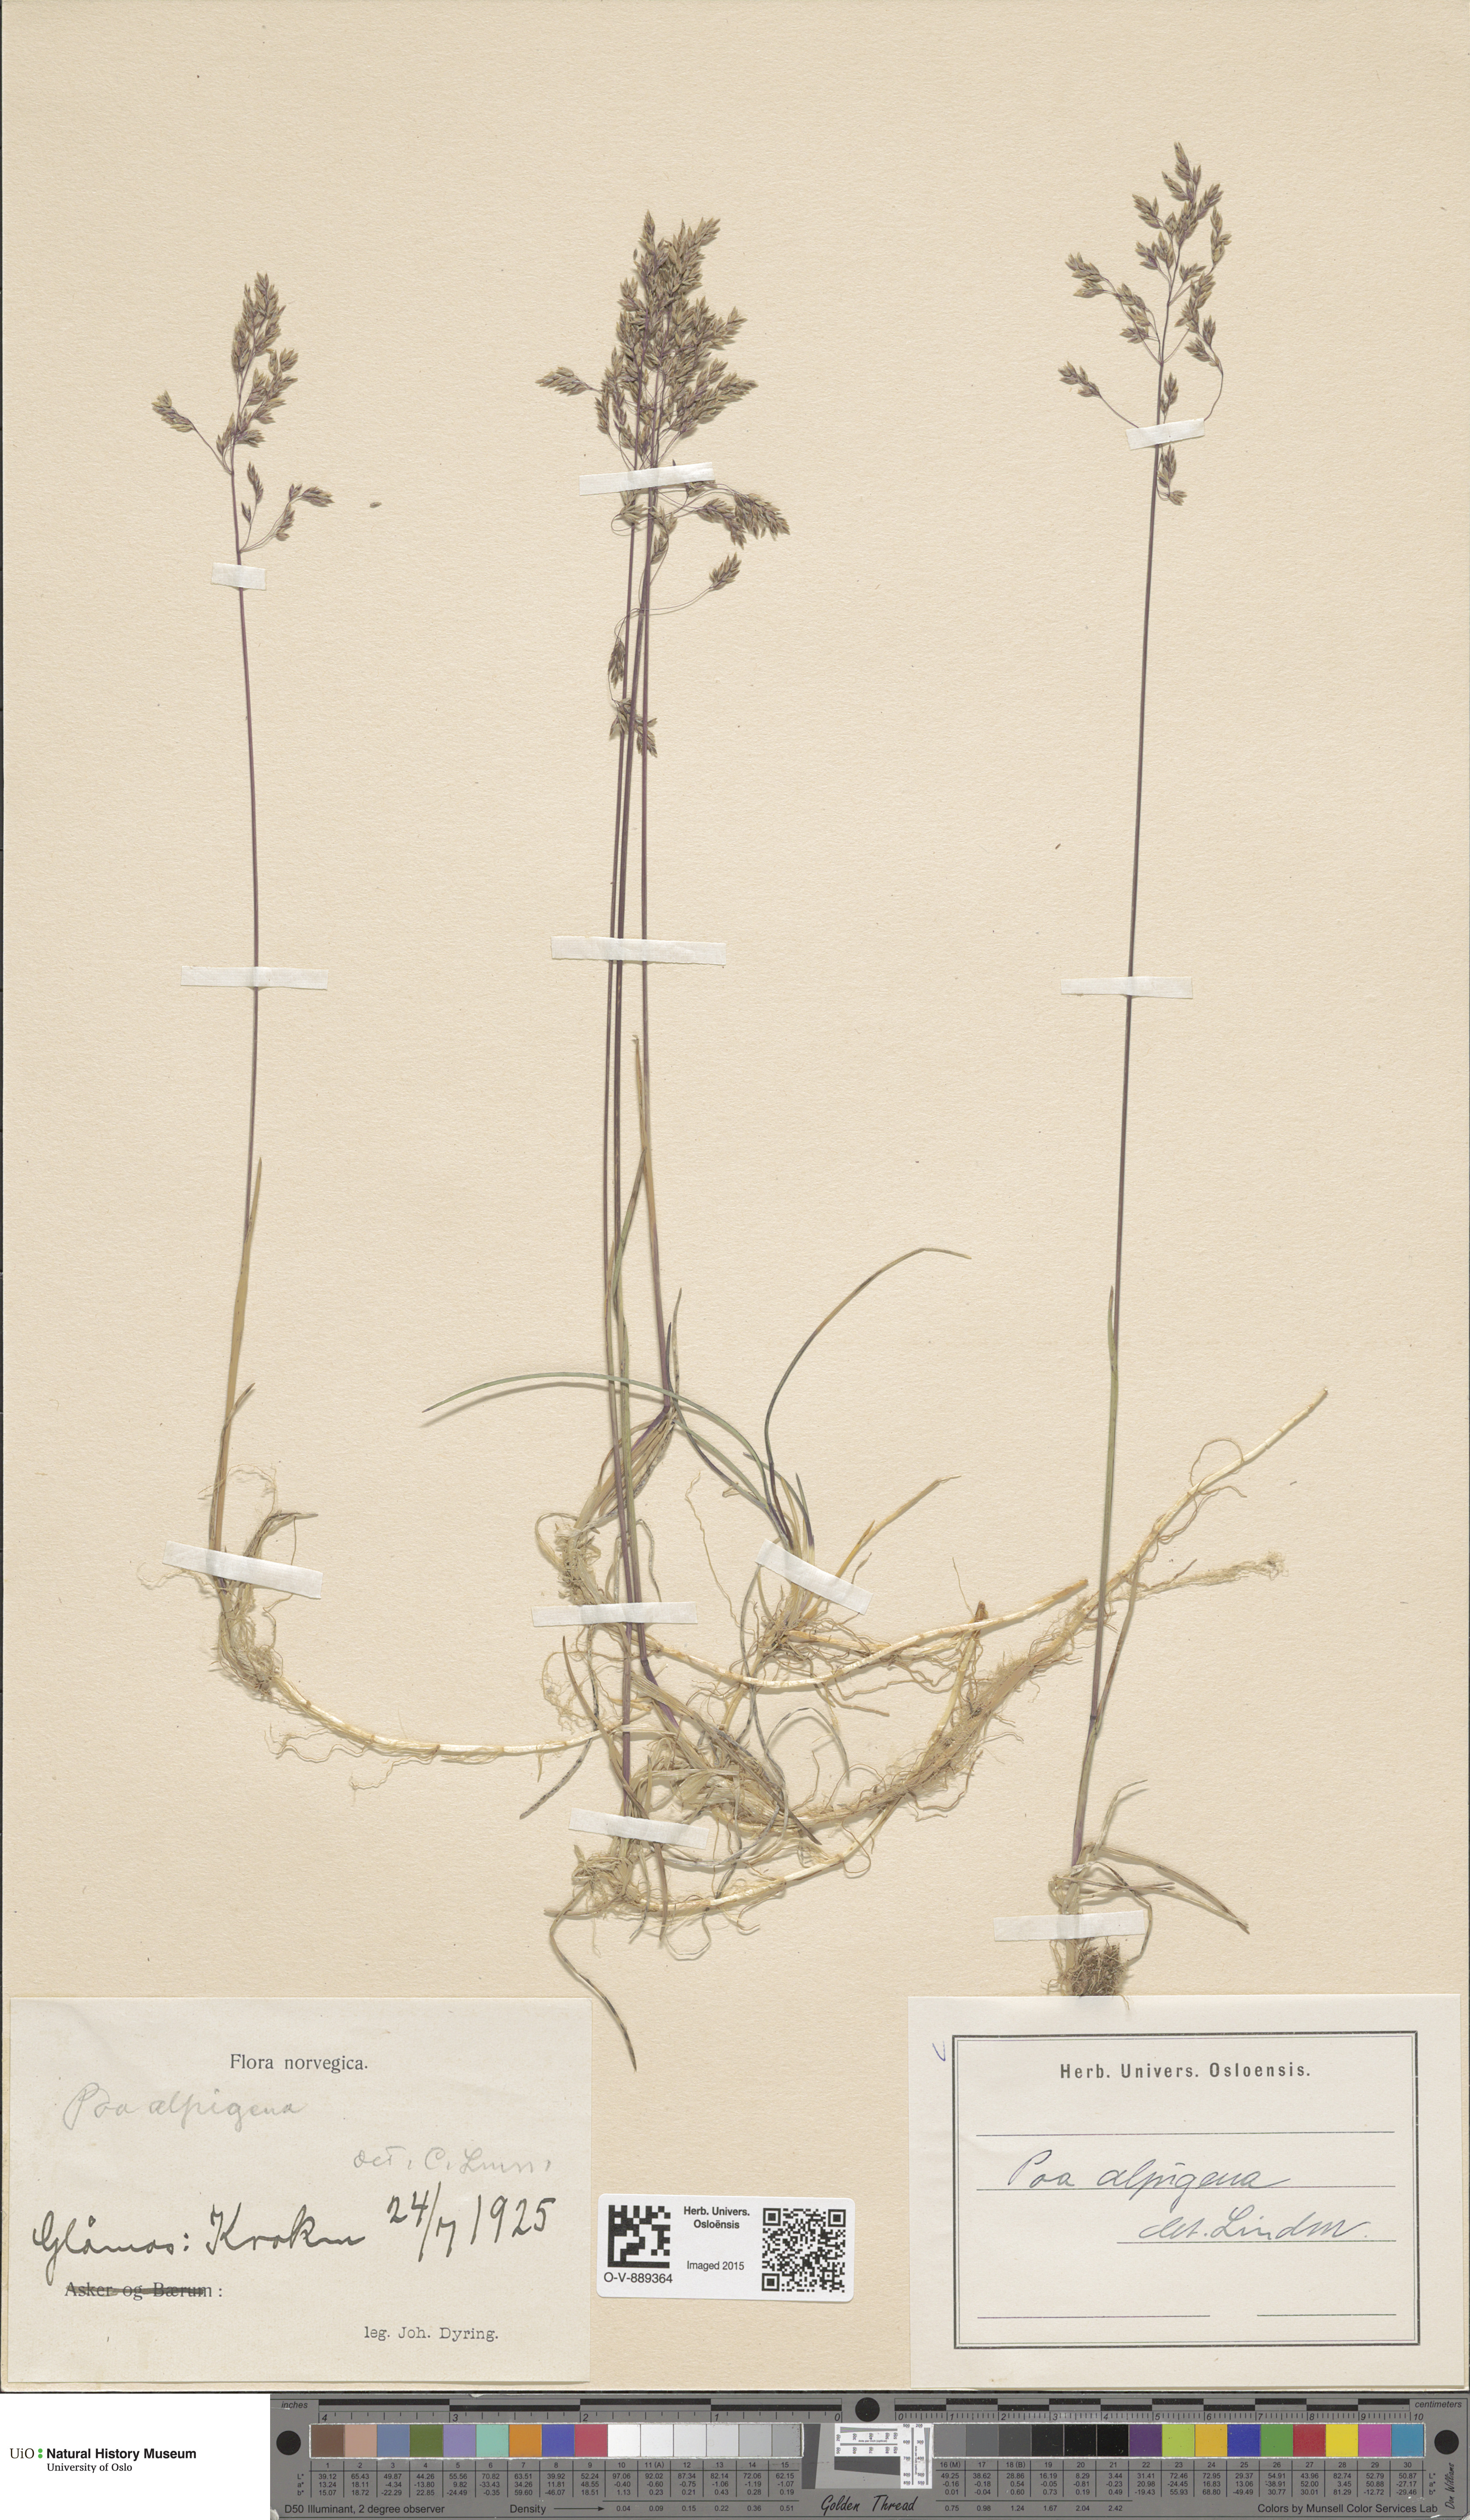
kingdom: Plantae
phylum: Tracheophyta
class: Liliopsida
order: Poales
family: Poaceae
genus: Poa
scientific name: Poa alpigena
